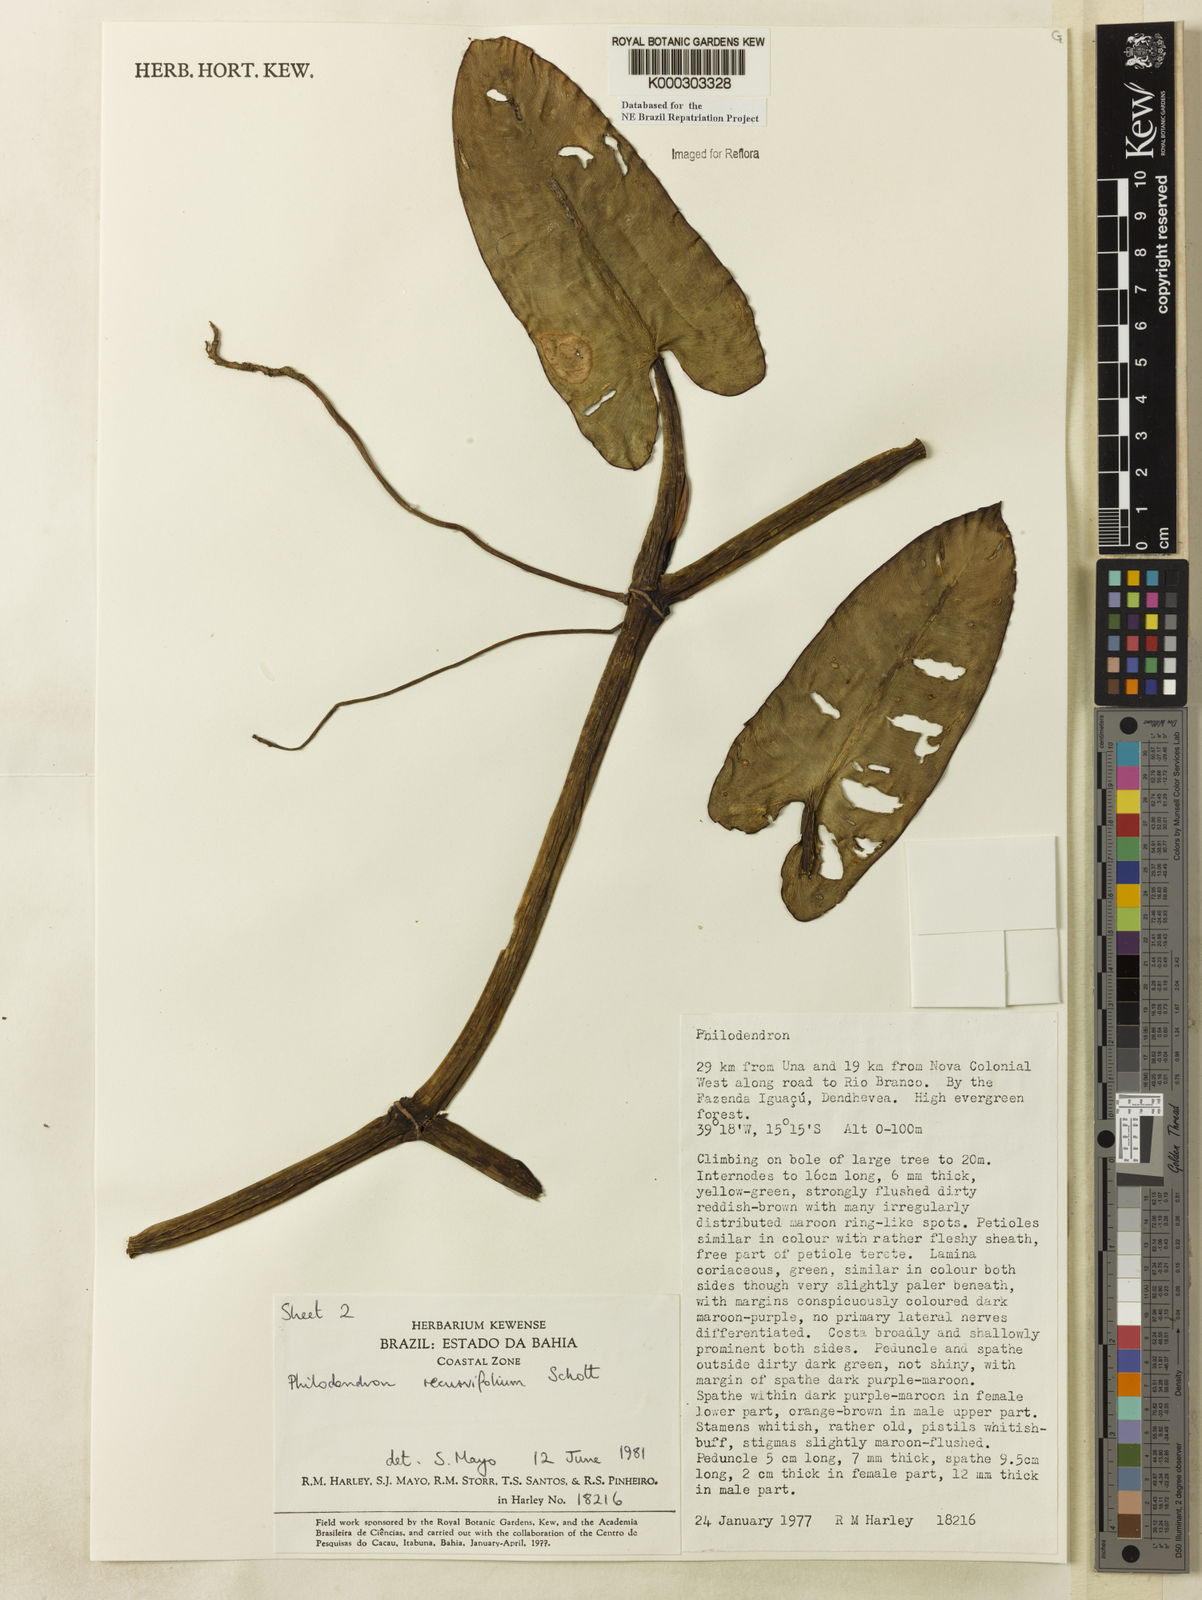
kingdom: Plantae
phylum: Tracheophyta
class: Liliopsida
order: Alismatales
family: Araceae
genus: Philodendron
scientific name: Philodendron recurvifolium
